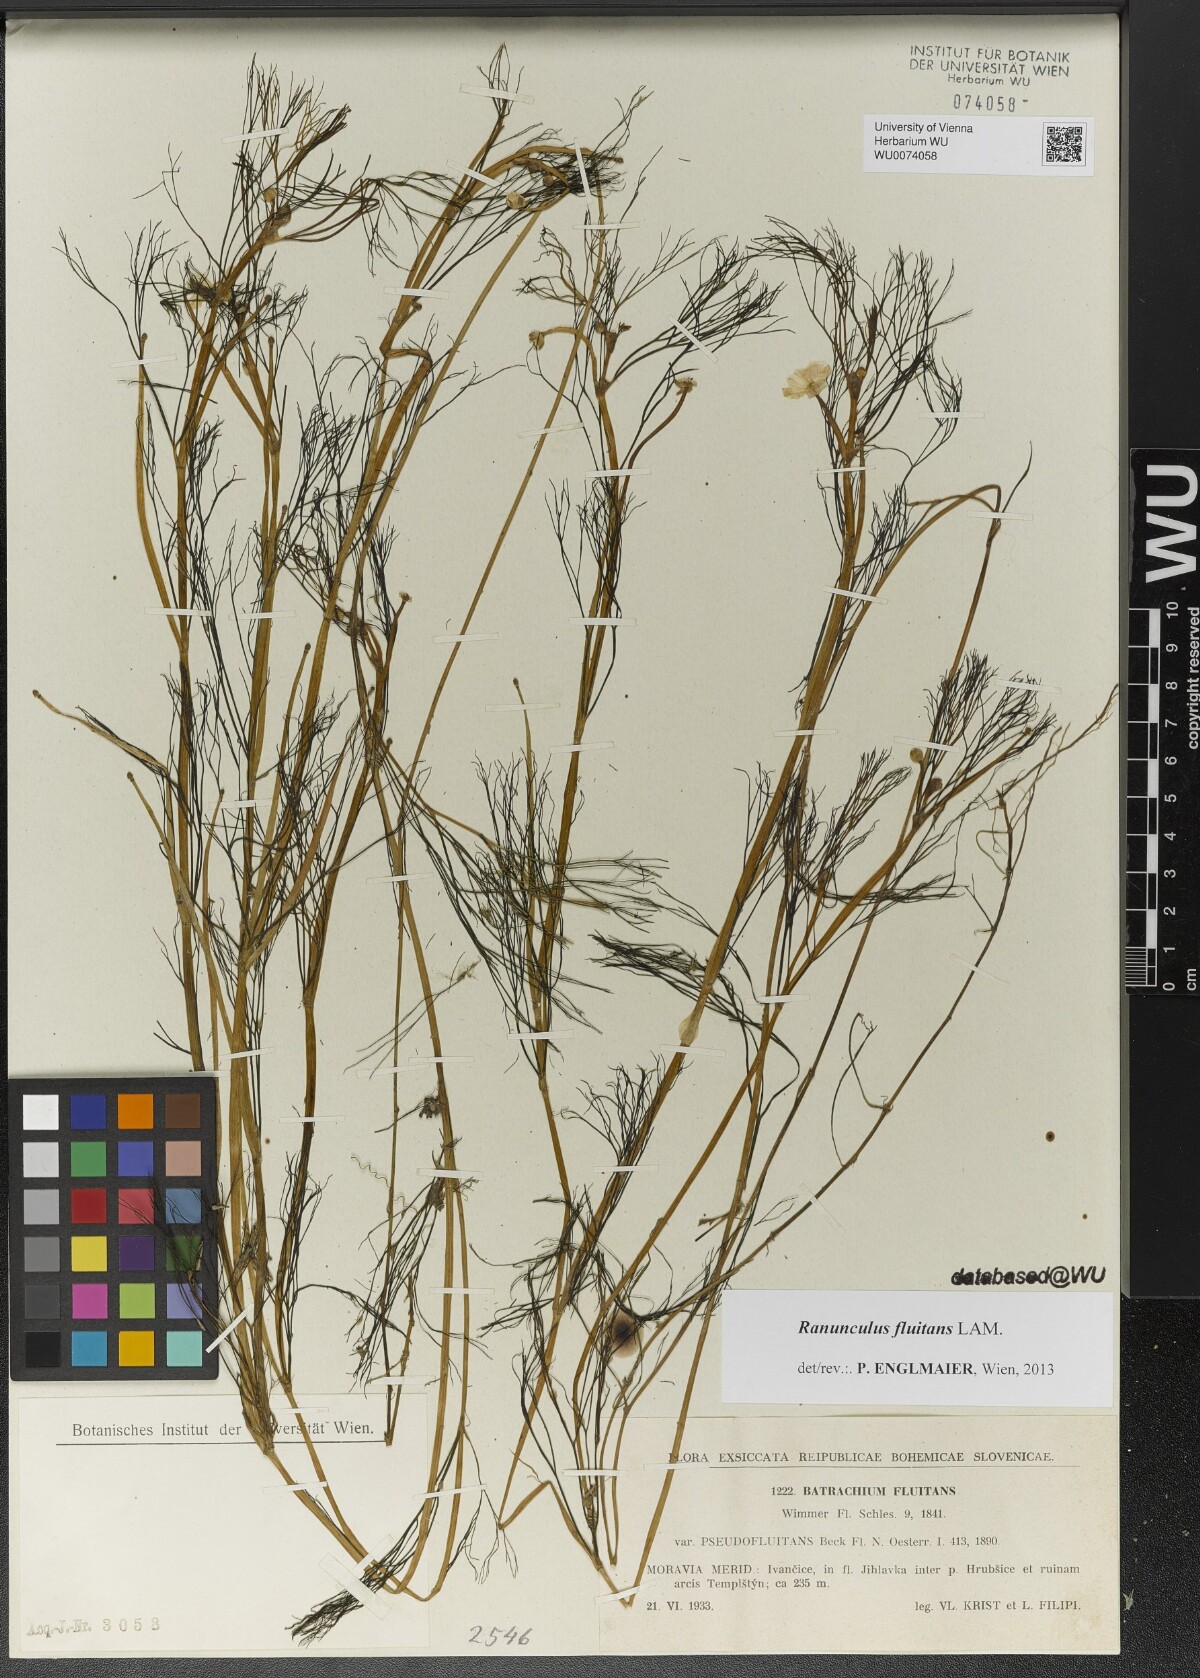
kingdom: Plantae
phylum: Tracheophyta
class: Magnoliopsida
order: Ranunculales
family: Ranunculaceae
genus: Ranunculus
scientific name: Ranunculus fluitans
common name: River water-crowfoot
